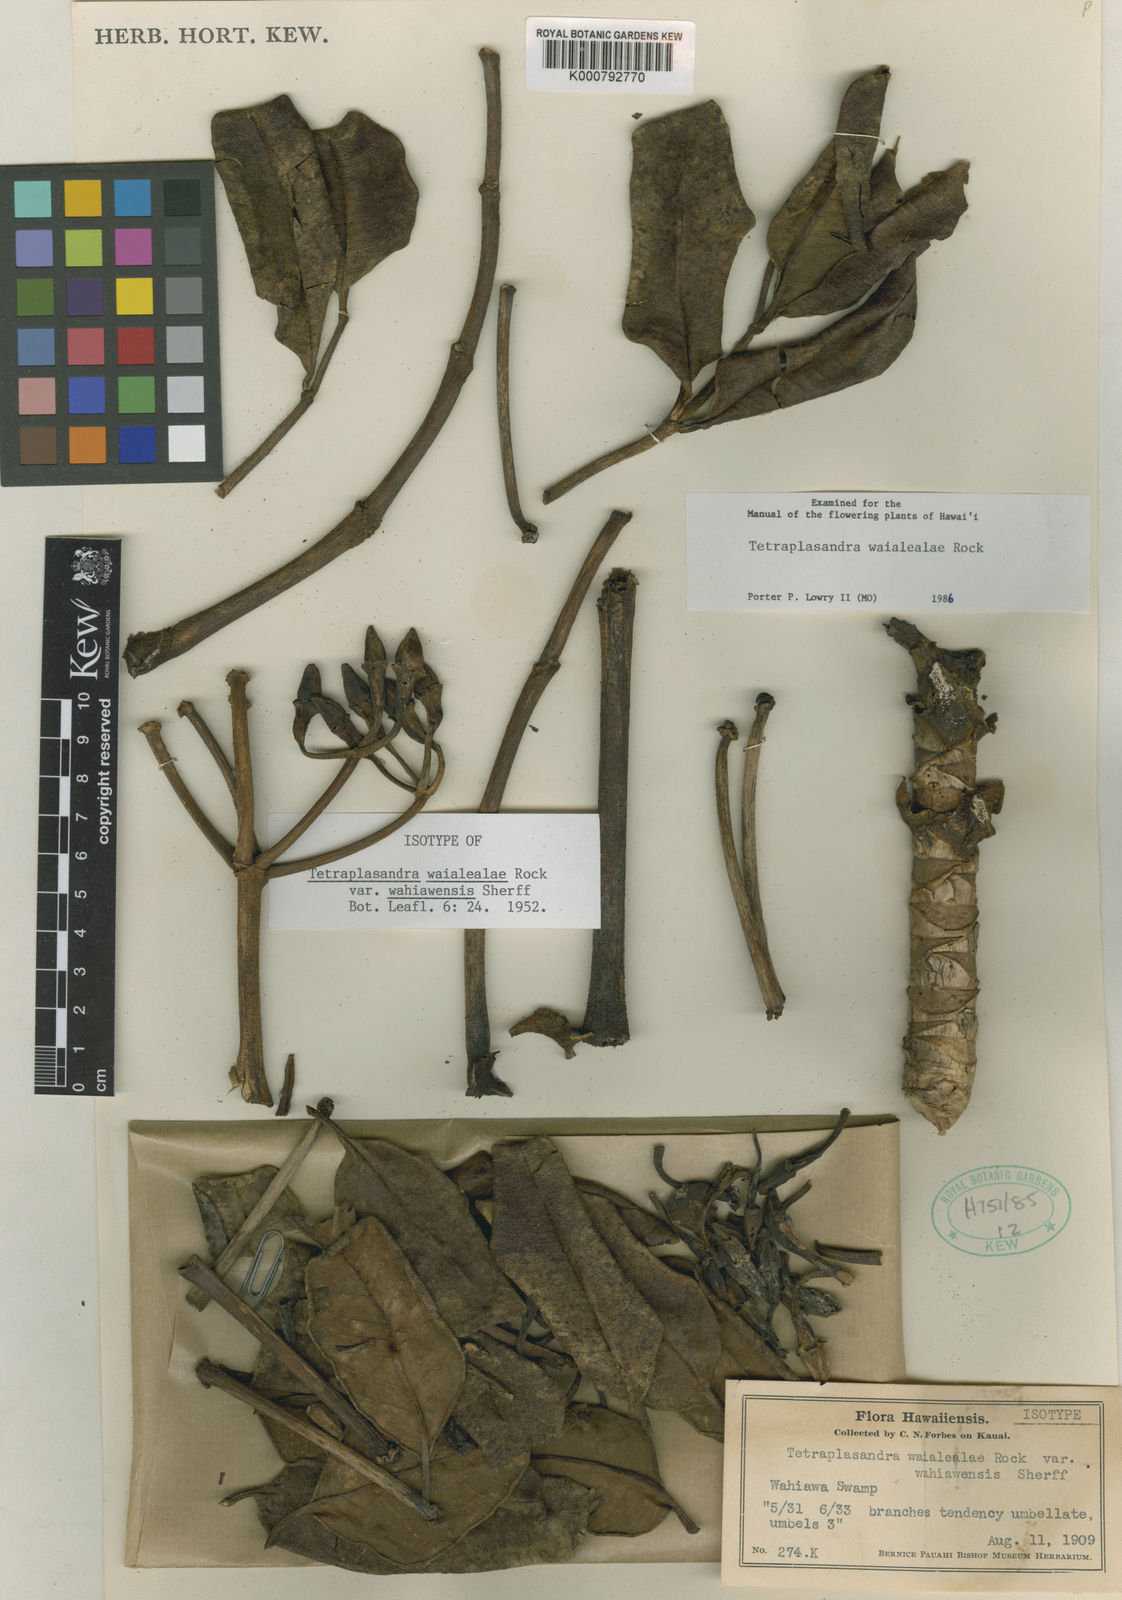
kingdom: Plantae
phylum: Tracheophyta
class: Magnoliopsida
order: Apiales
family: Araliaceae
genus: Polyscias
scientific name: Polyscias waialealae
